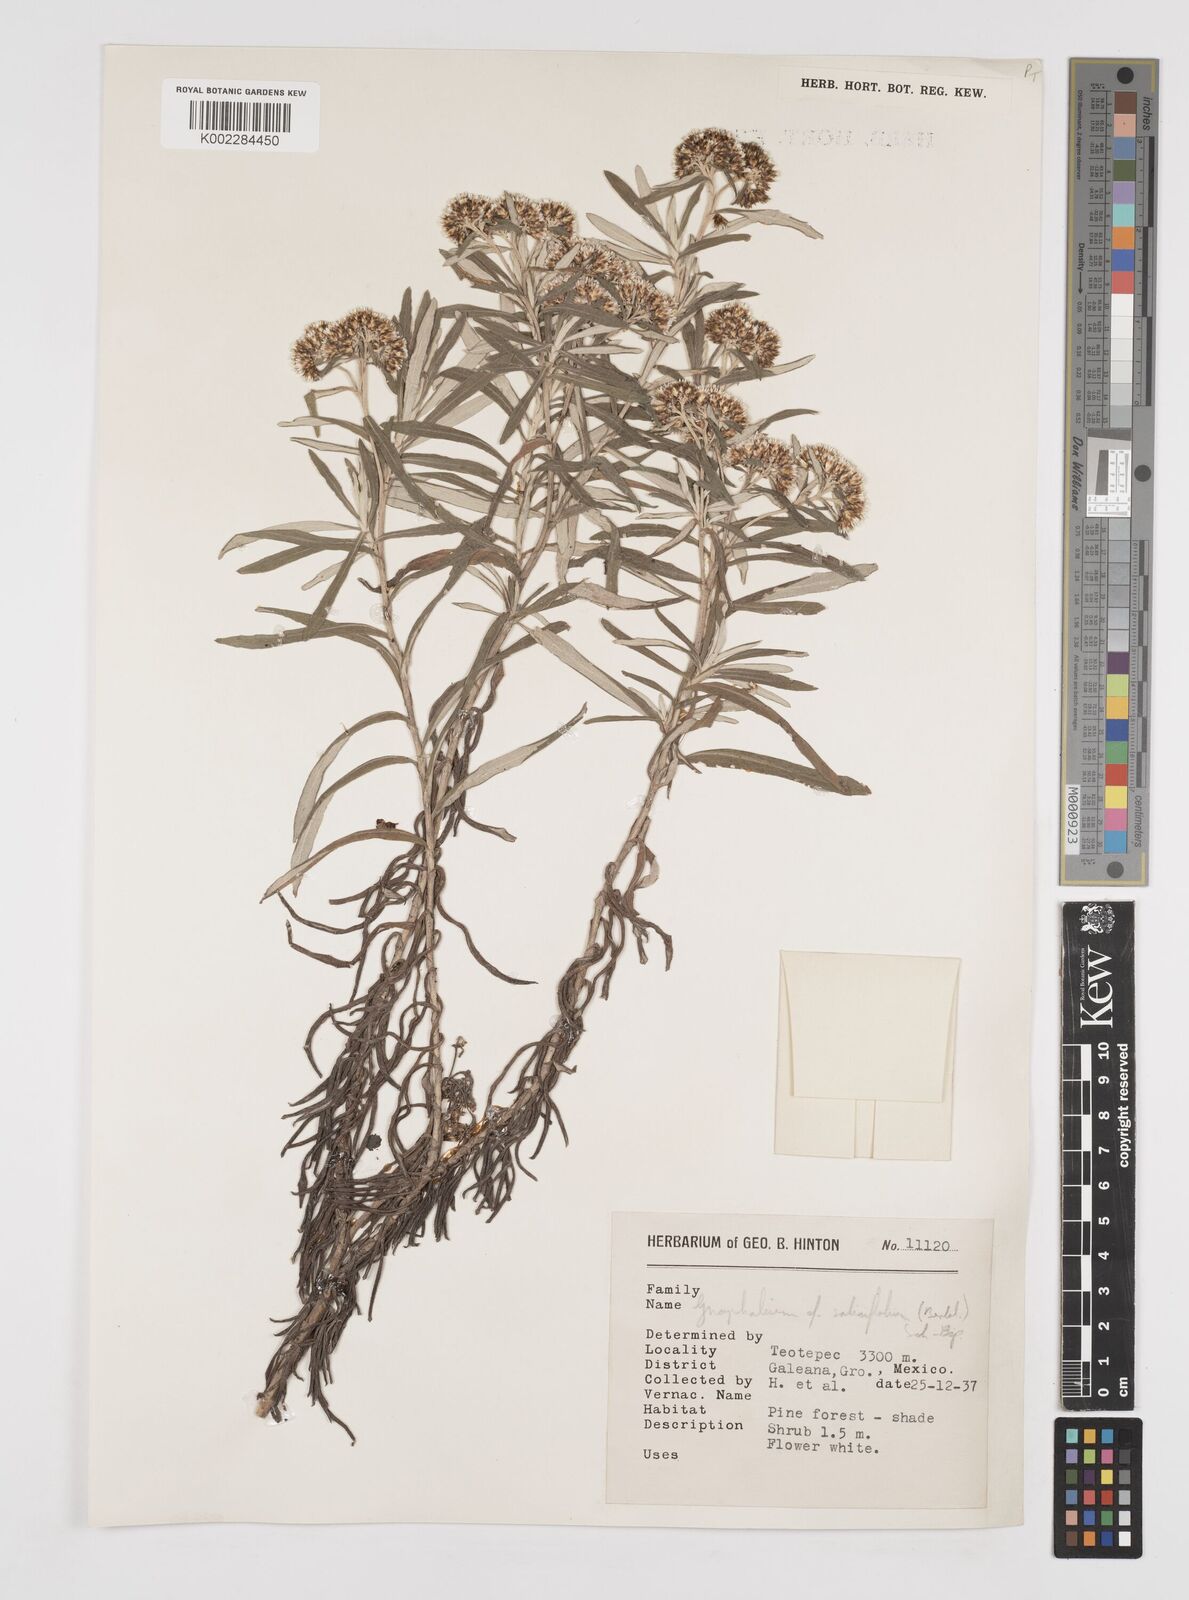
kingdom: Plantae
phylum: Tracheophyta
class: Magnoliopsida
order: Asterales
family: Asteraceae
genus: Gnaphaliothamnus
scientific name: Gnaphaliothamnus salicifolius
